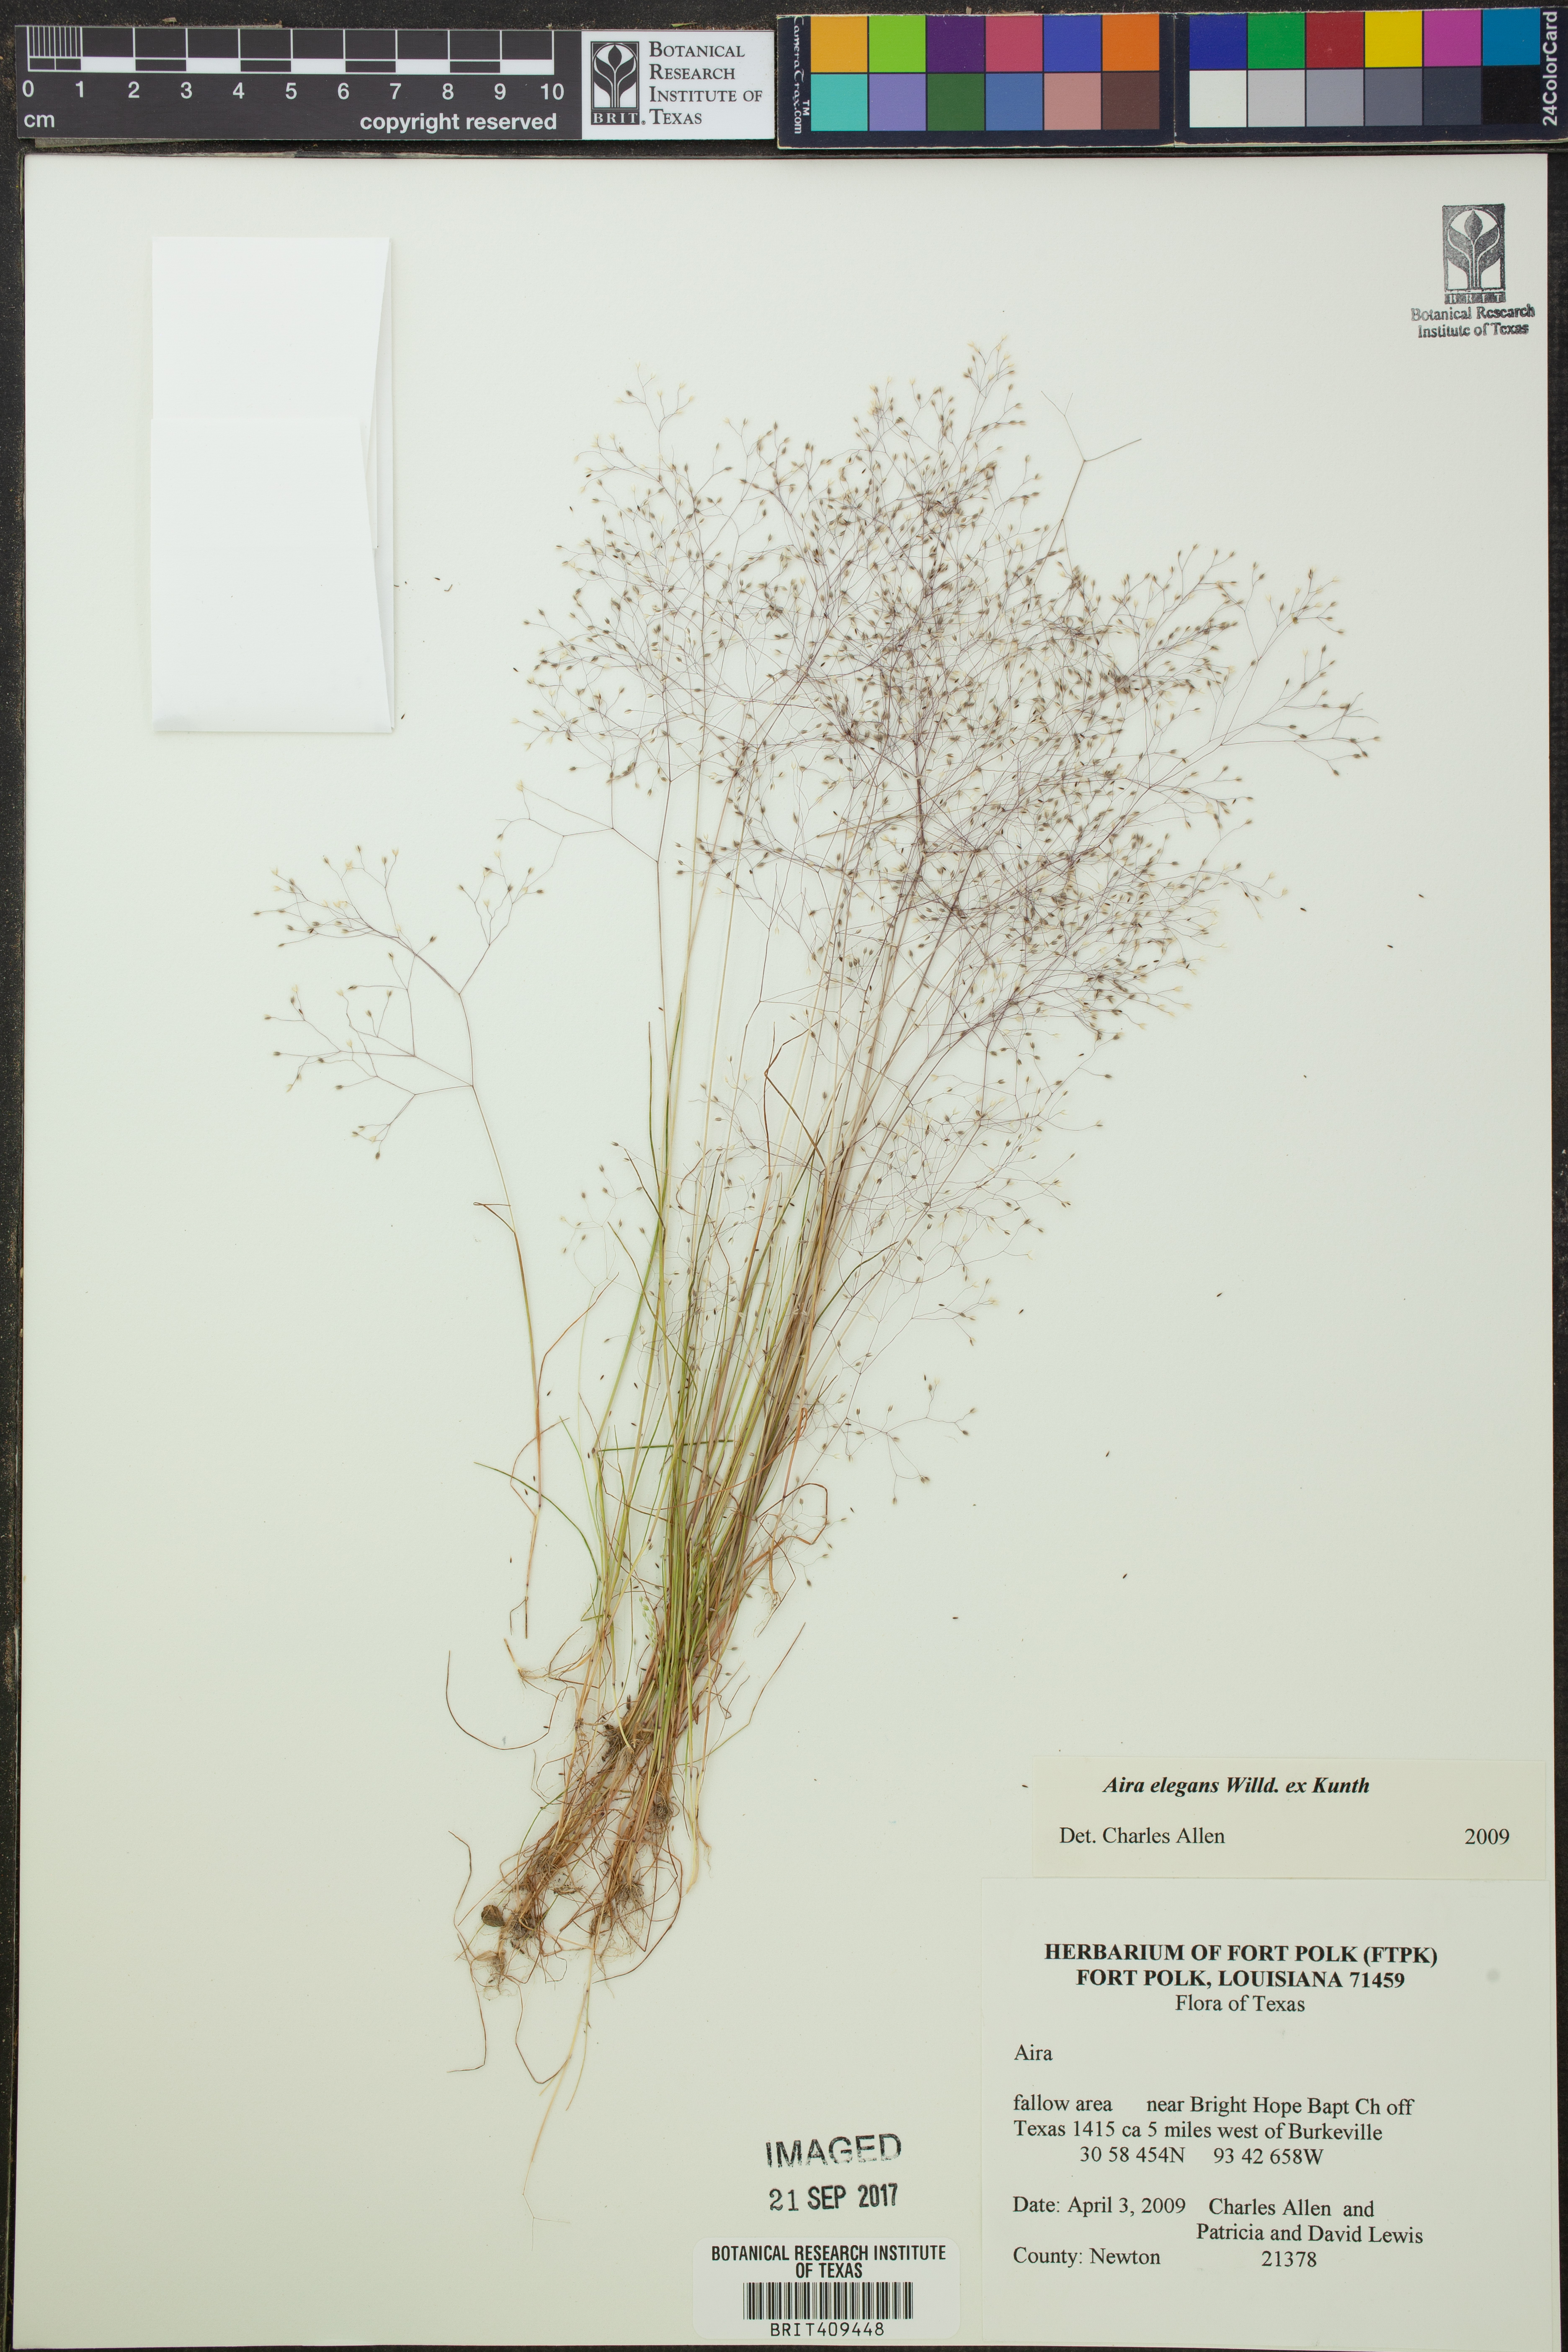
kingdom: Plantae
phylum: Tracheophyta
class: Liliopsida
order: Poales
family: Poaceae
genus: Aira
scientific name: Aira elegans
